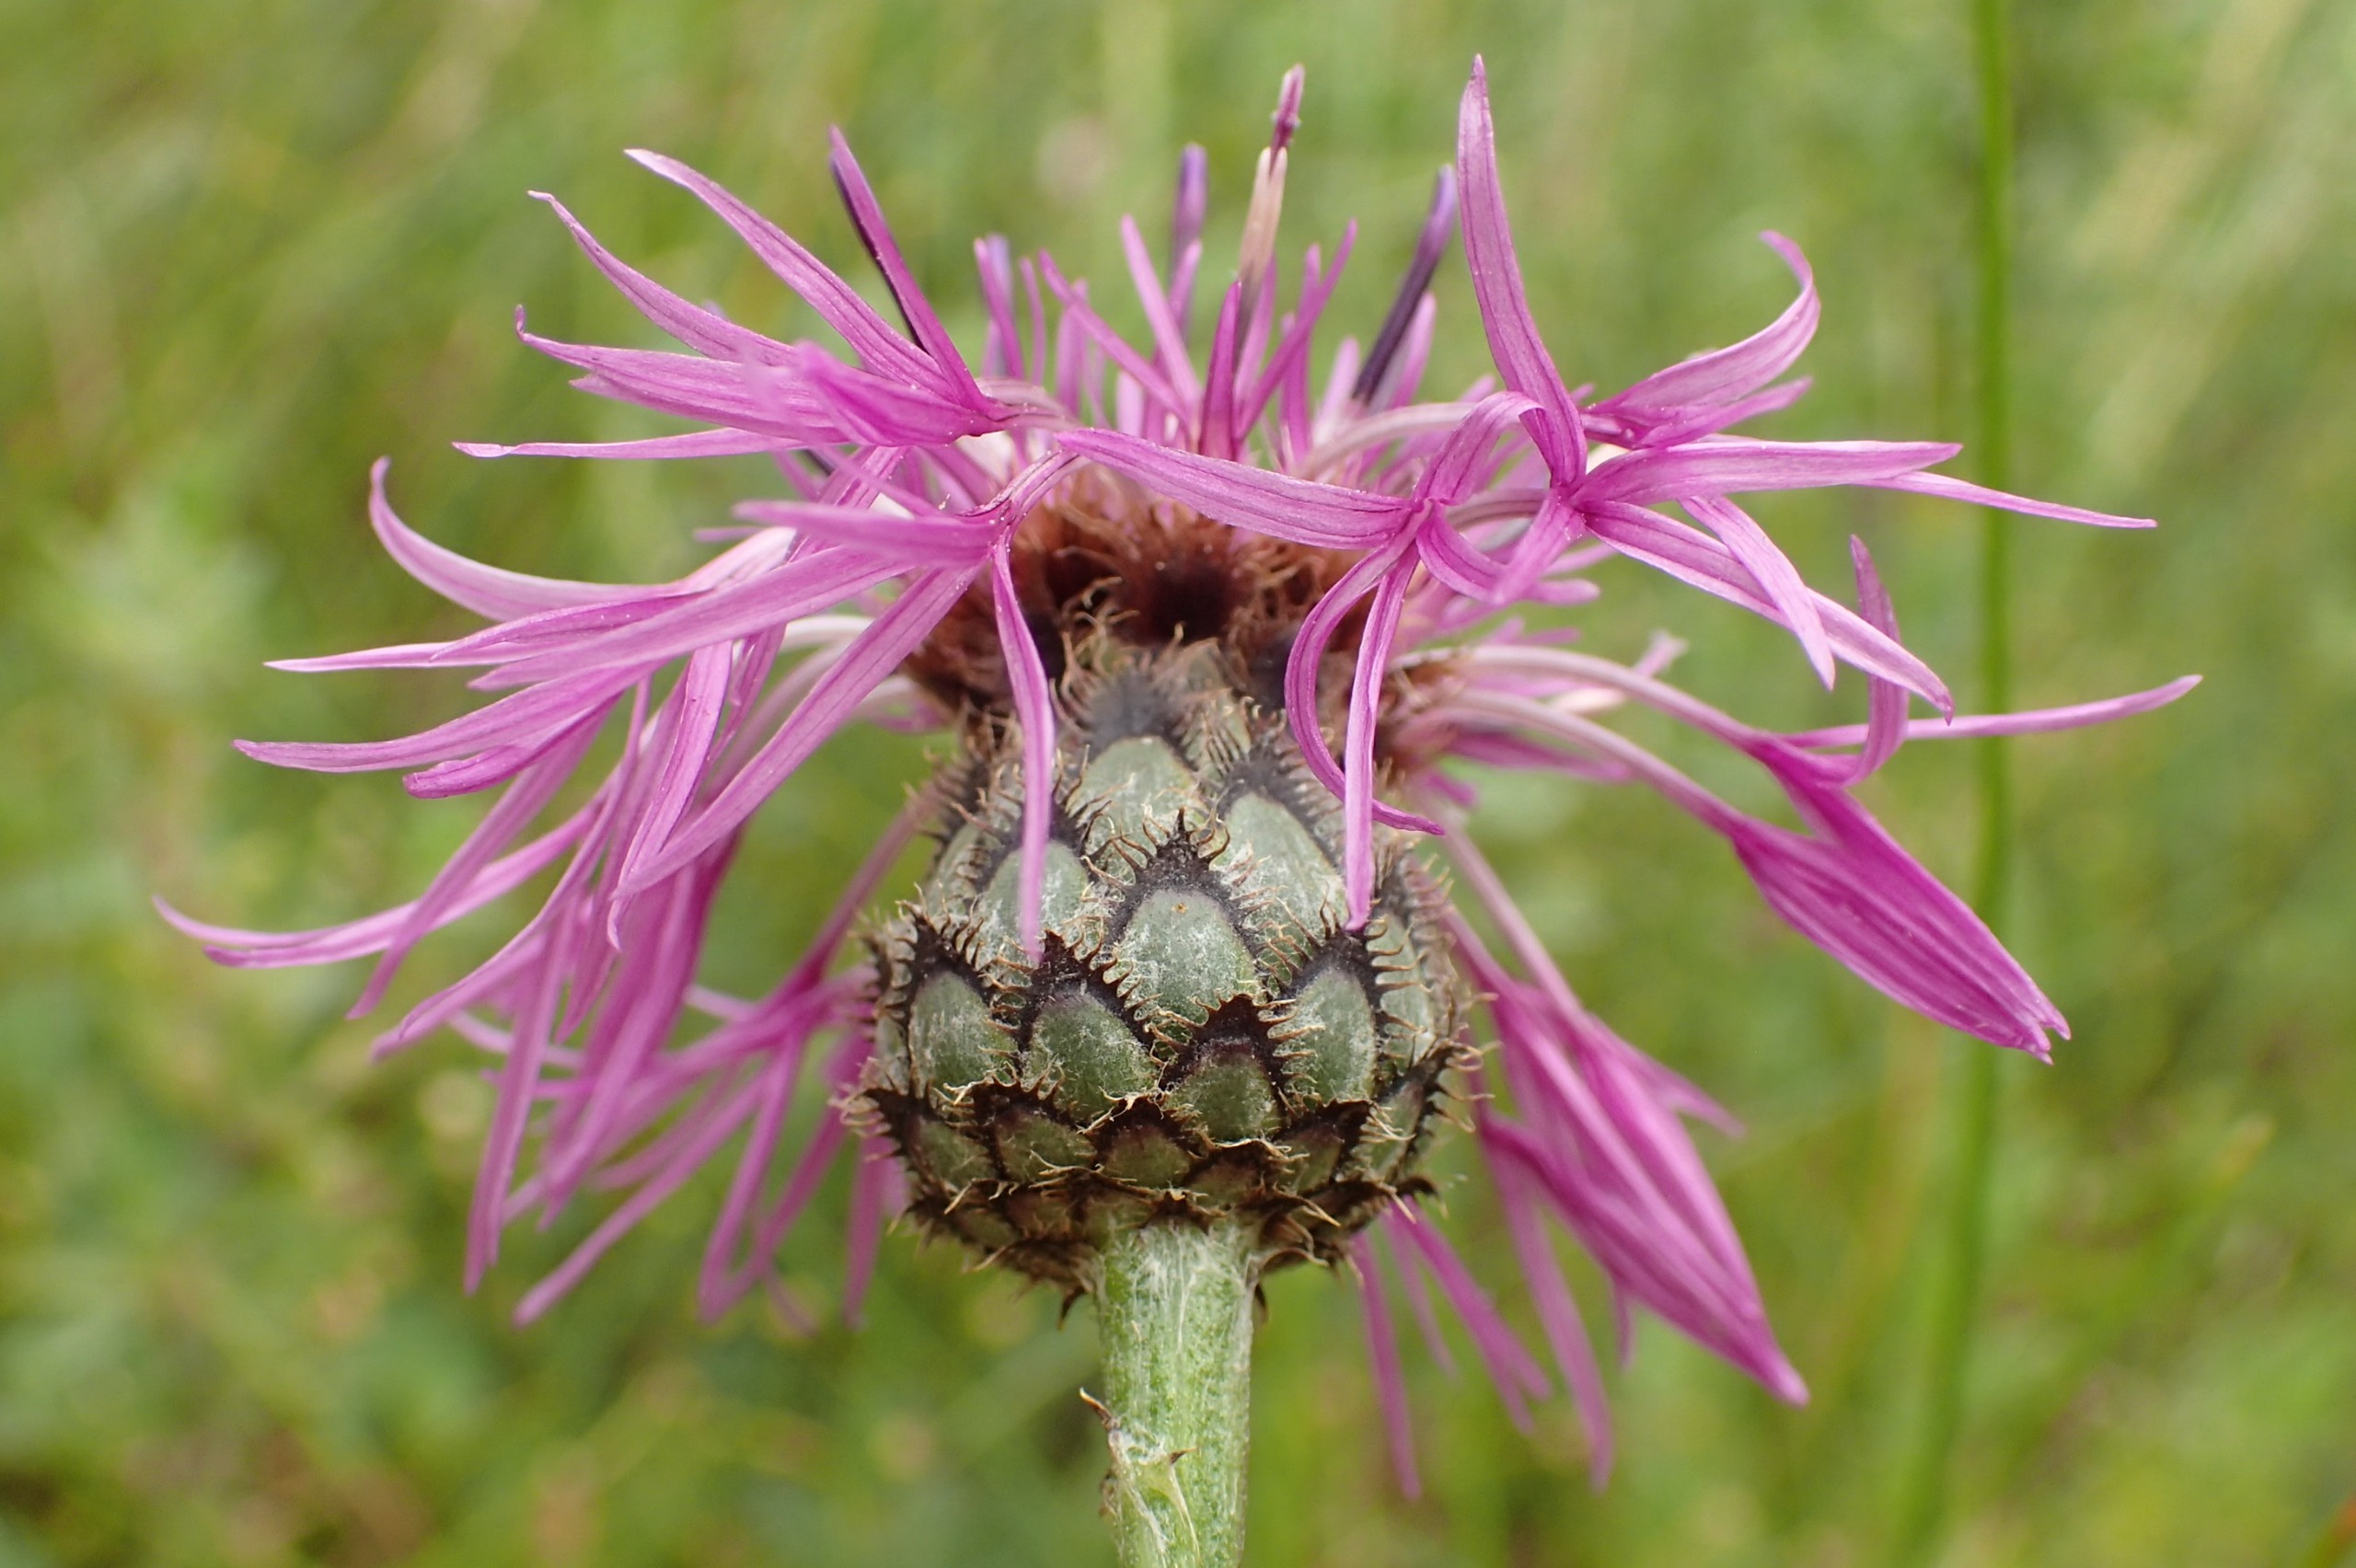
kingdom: Plantae
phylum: Tracheophyta
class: Magnoliopsida
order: Asterales
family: Asteraceae
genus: Centaurea
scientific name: Centaurea scabiosa
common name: Stor knopurt
